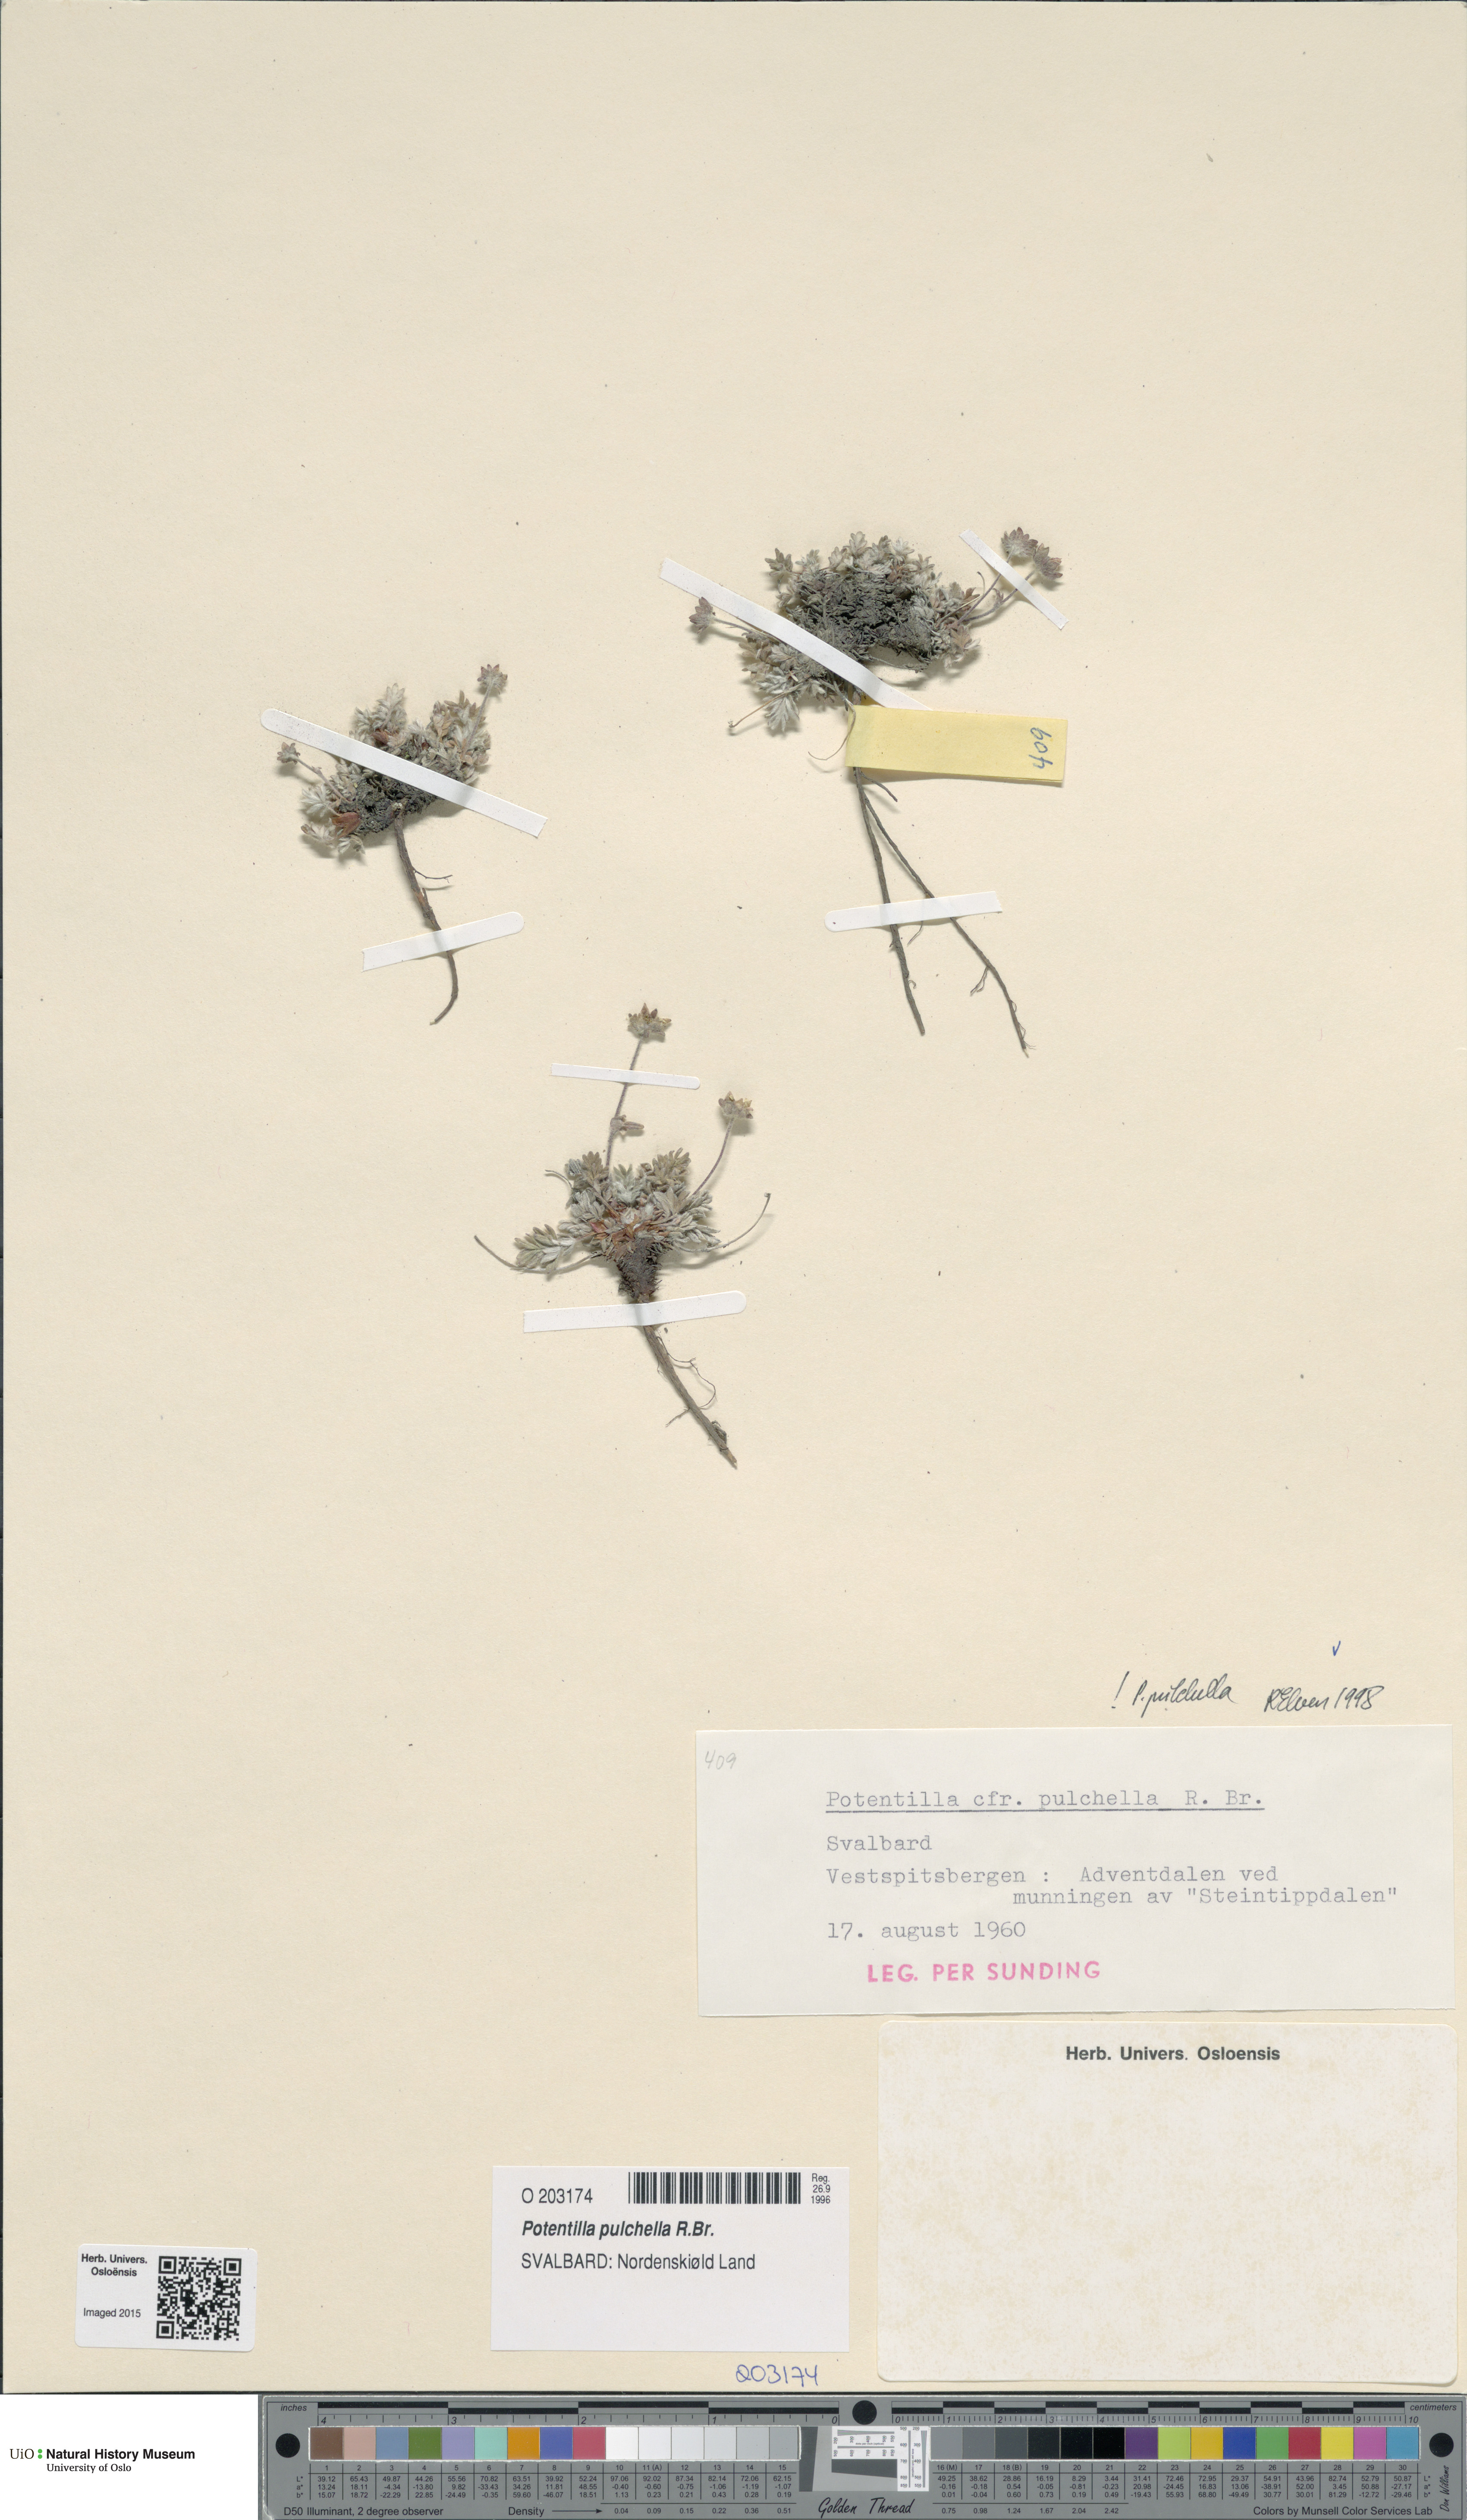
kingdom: Plantae
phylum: Tracheophyta
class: Magnoliopsida
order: Rosales
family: Rosaceae
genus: Potentilla
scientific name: Potentilla pulchella
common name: Pretty cinquefoil
